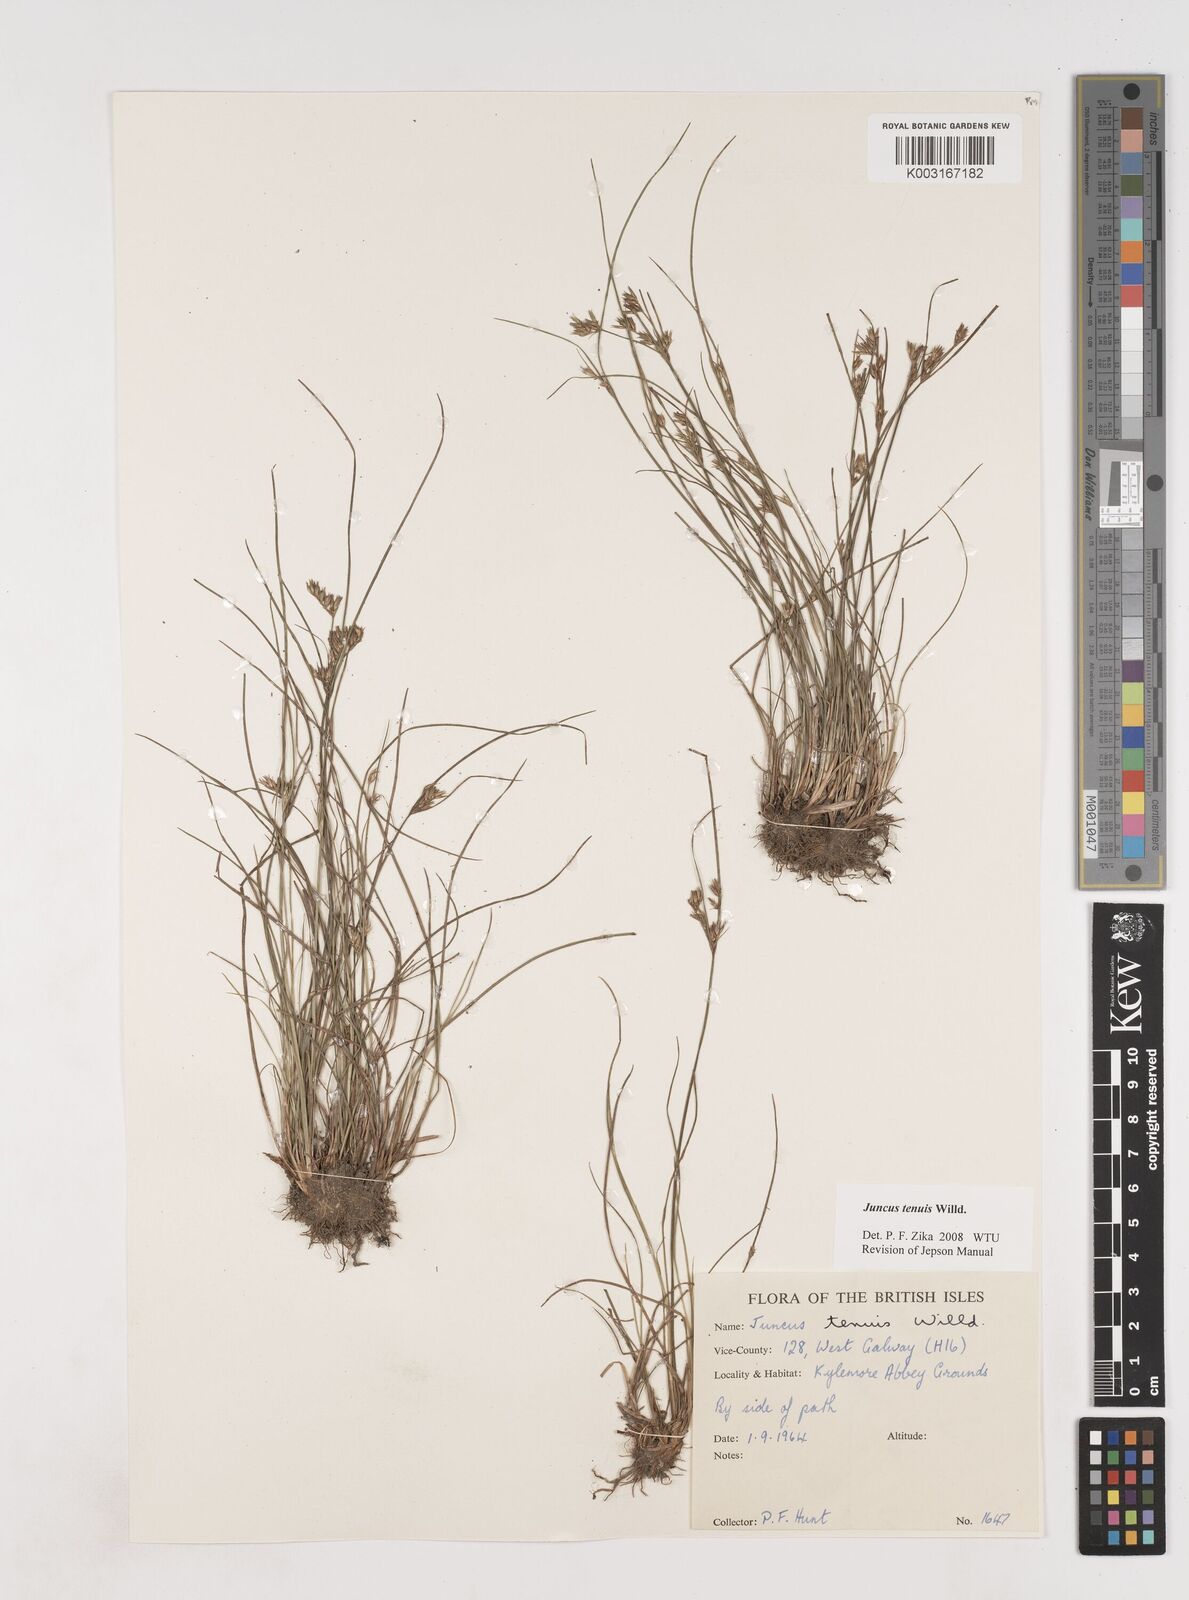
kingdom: Plantae
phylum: Tracheophyta
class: Liliopsida
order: Poales
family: Juncaceae
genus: Juncus
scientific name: Juncus tenuis
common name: Slender rush
